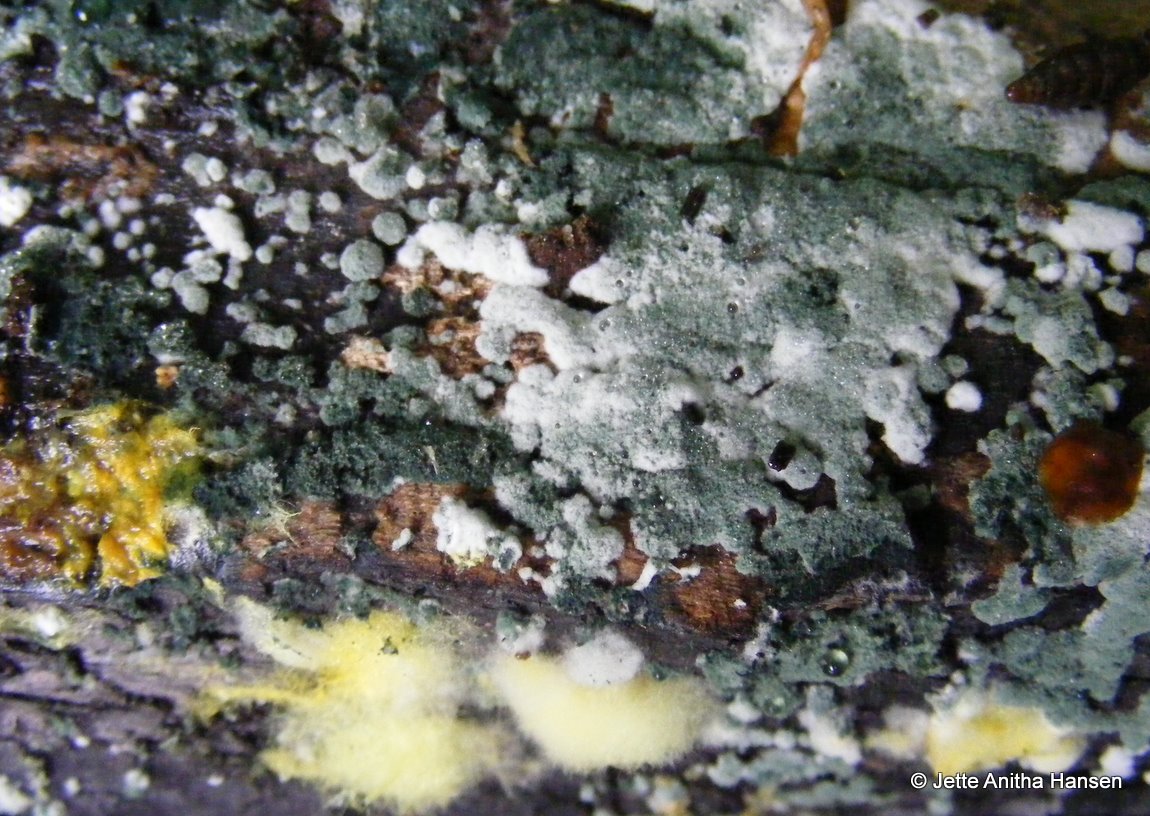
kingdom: Fungi
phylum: Ascomycota
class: Sordariomycetes
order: Hypocreales
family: Hypocreaceae
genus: Trichoderma
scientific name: Trichoderma
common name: kødkerne
